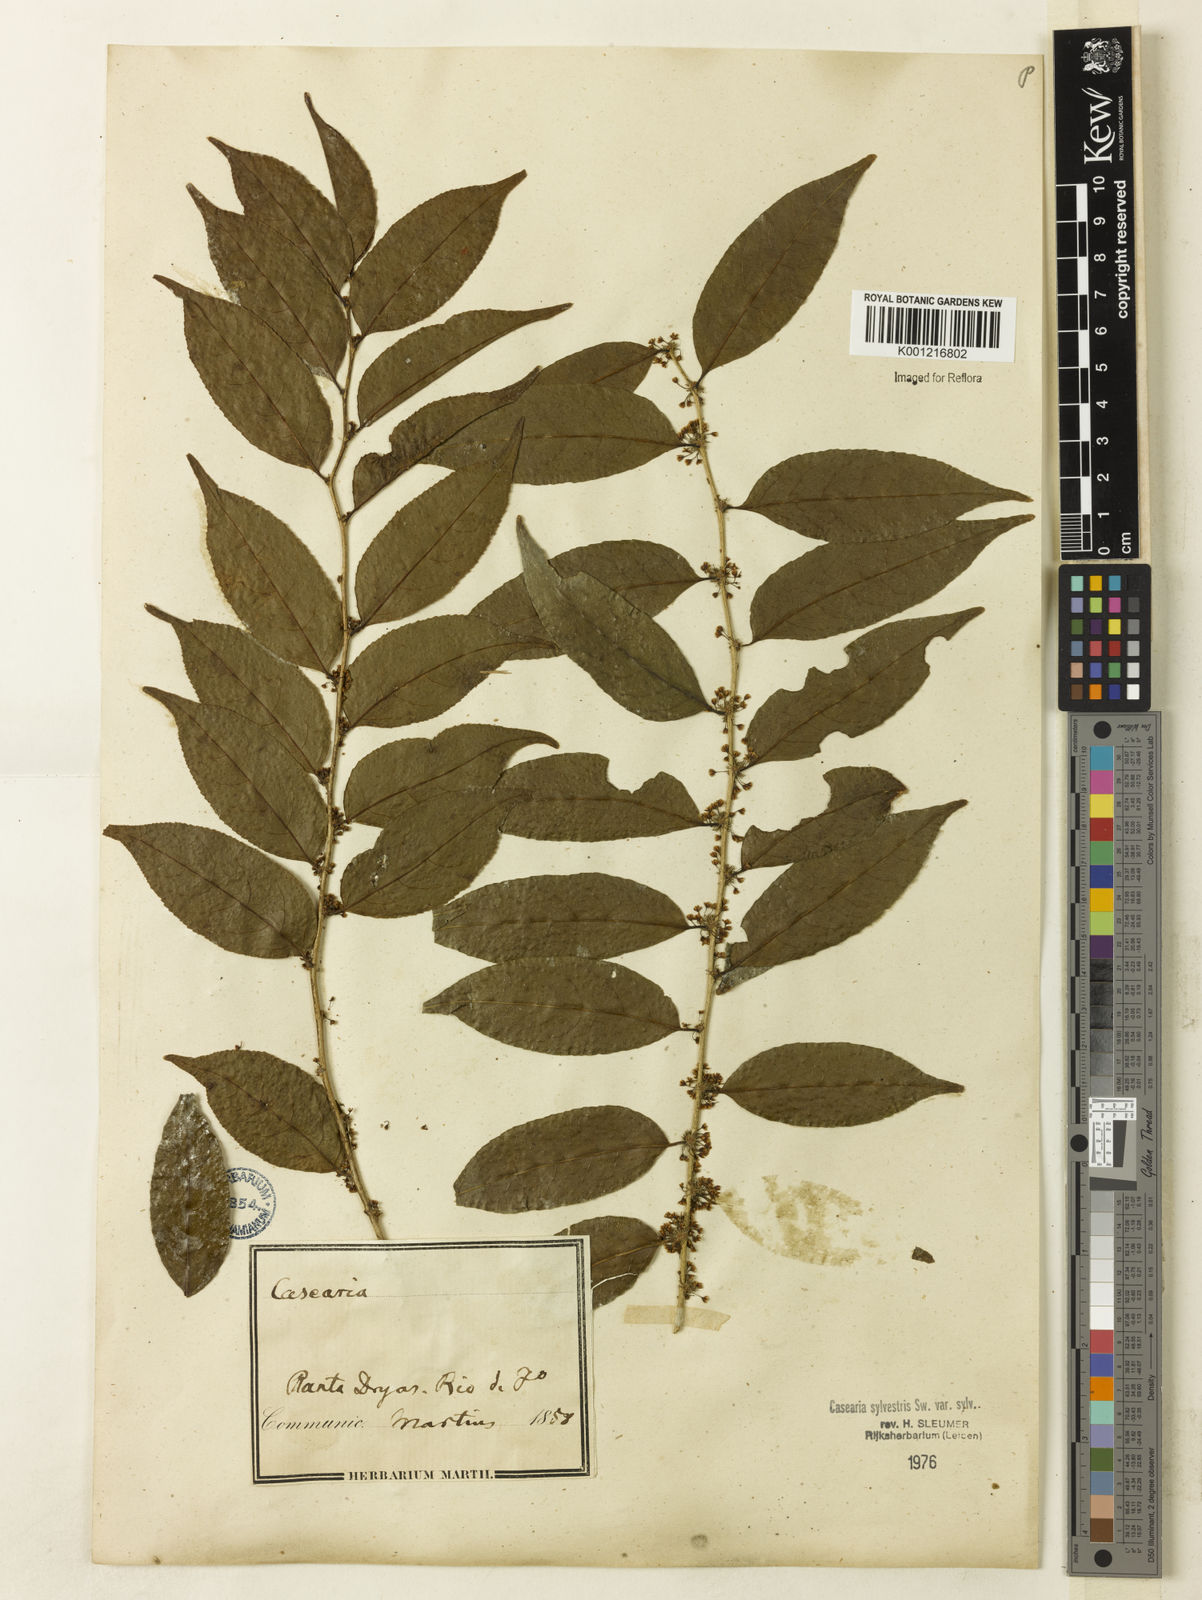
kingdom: Plantae
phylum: Tracheophyta
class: Magnoliopsida
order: Malpighiales
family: Salicaceae
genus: Casearia
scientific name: Casearia sylvestris
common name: Wild sage
